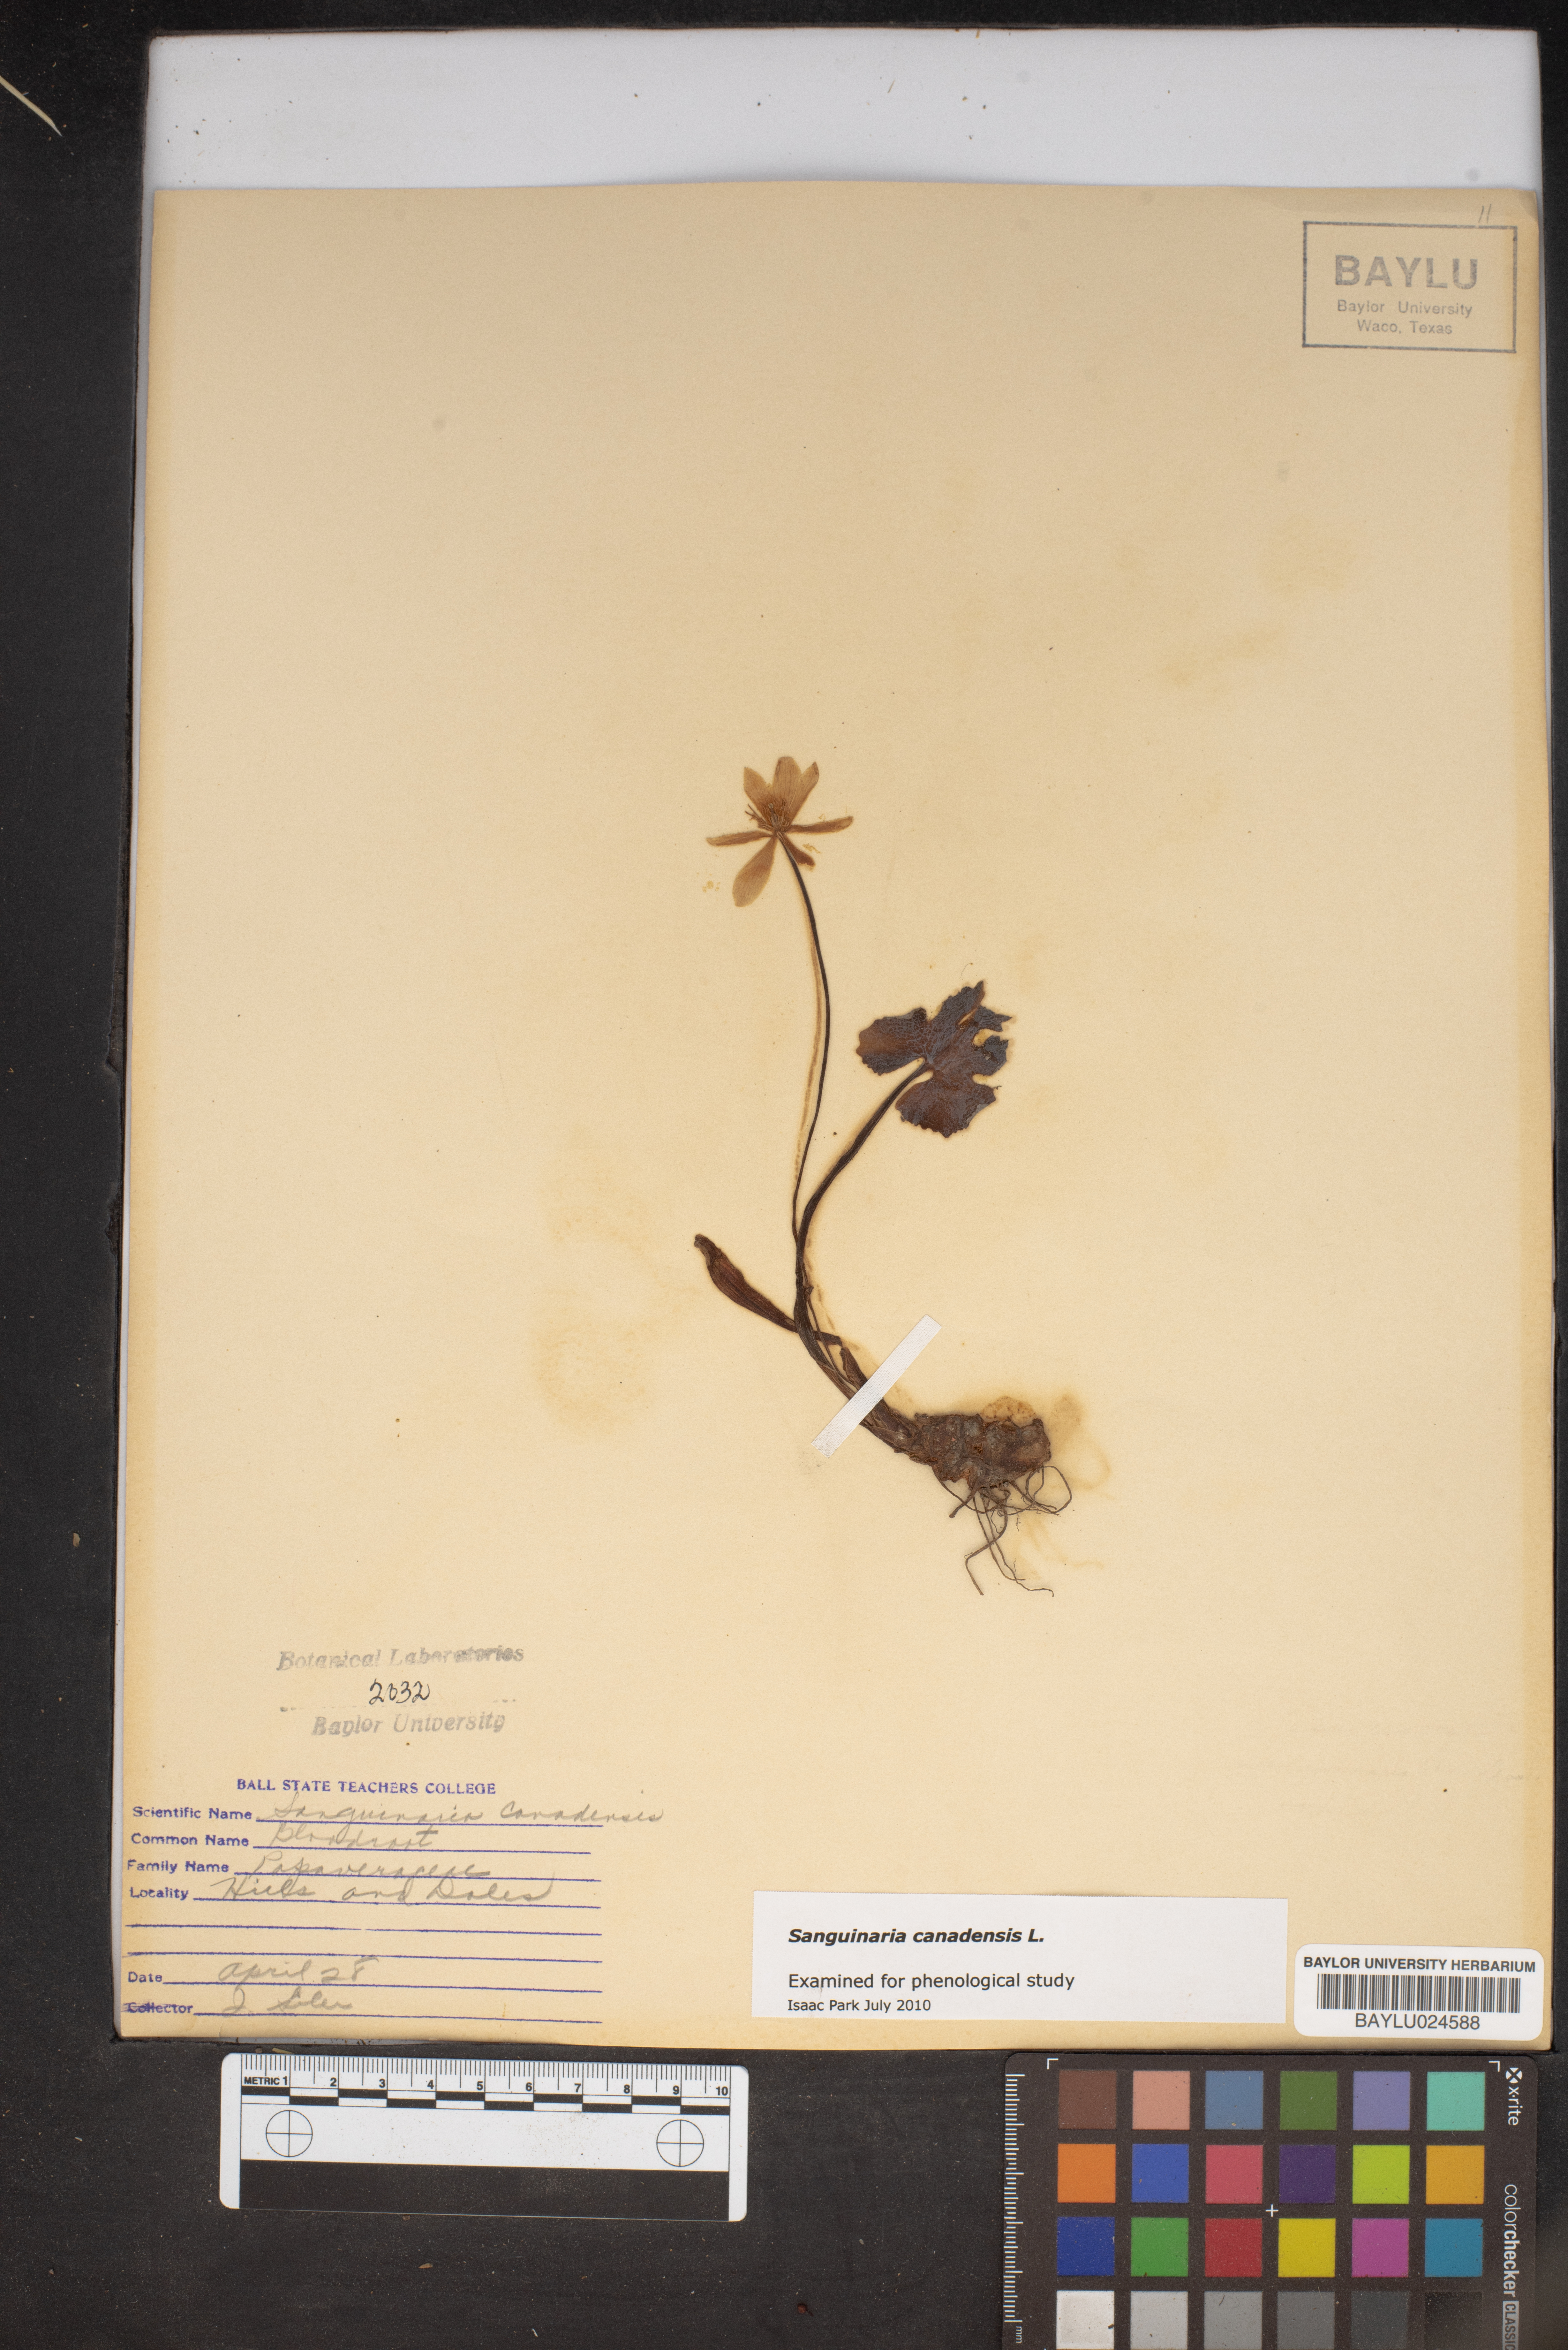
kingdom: Plantae
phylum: Tracheophyta
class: Magnoliopsida
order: Ranunculales
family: Papaveraceae
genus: Sanguinaria
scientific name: Sanguinaria canadensis
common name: Bloodroot
